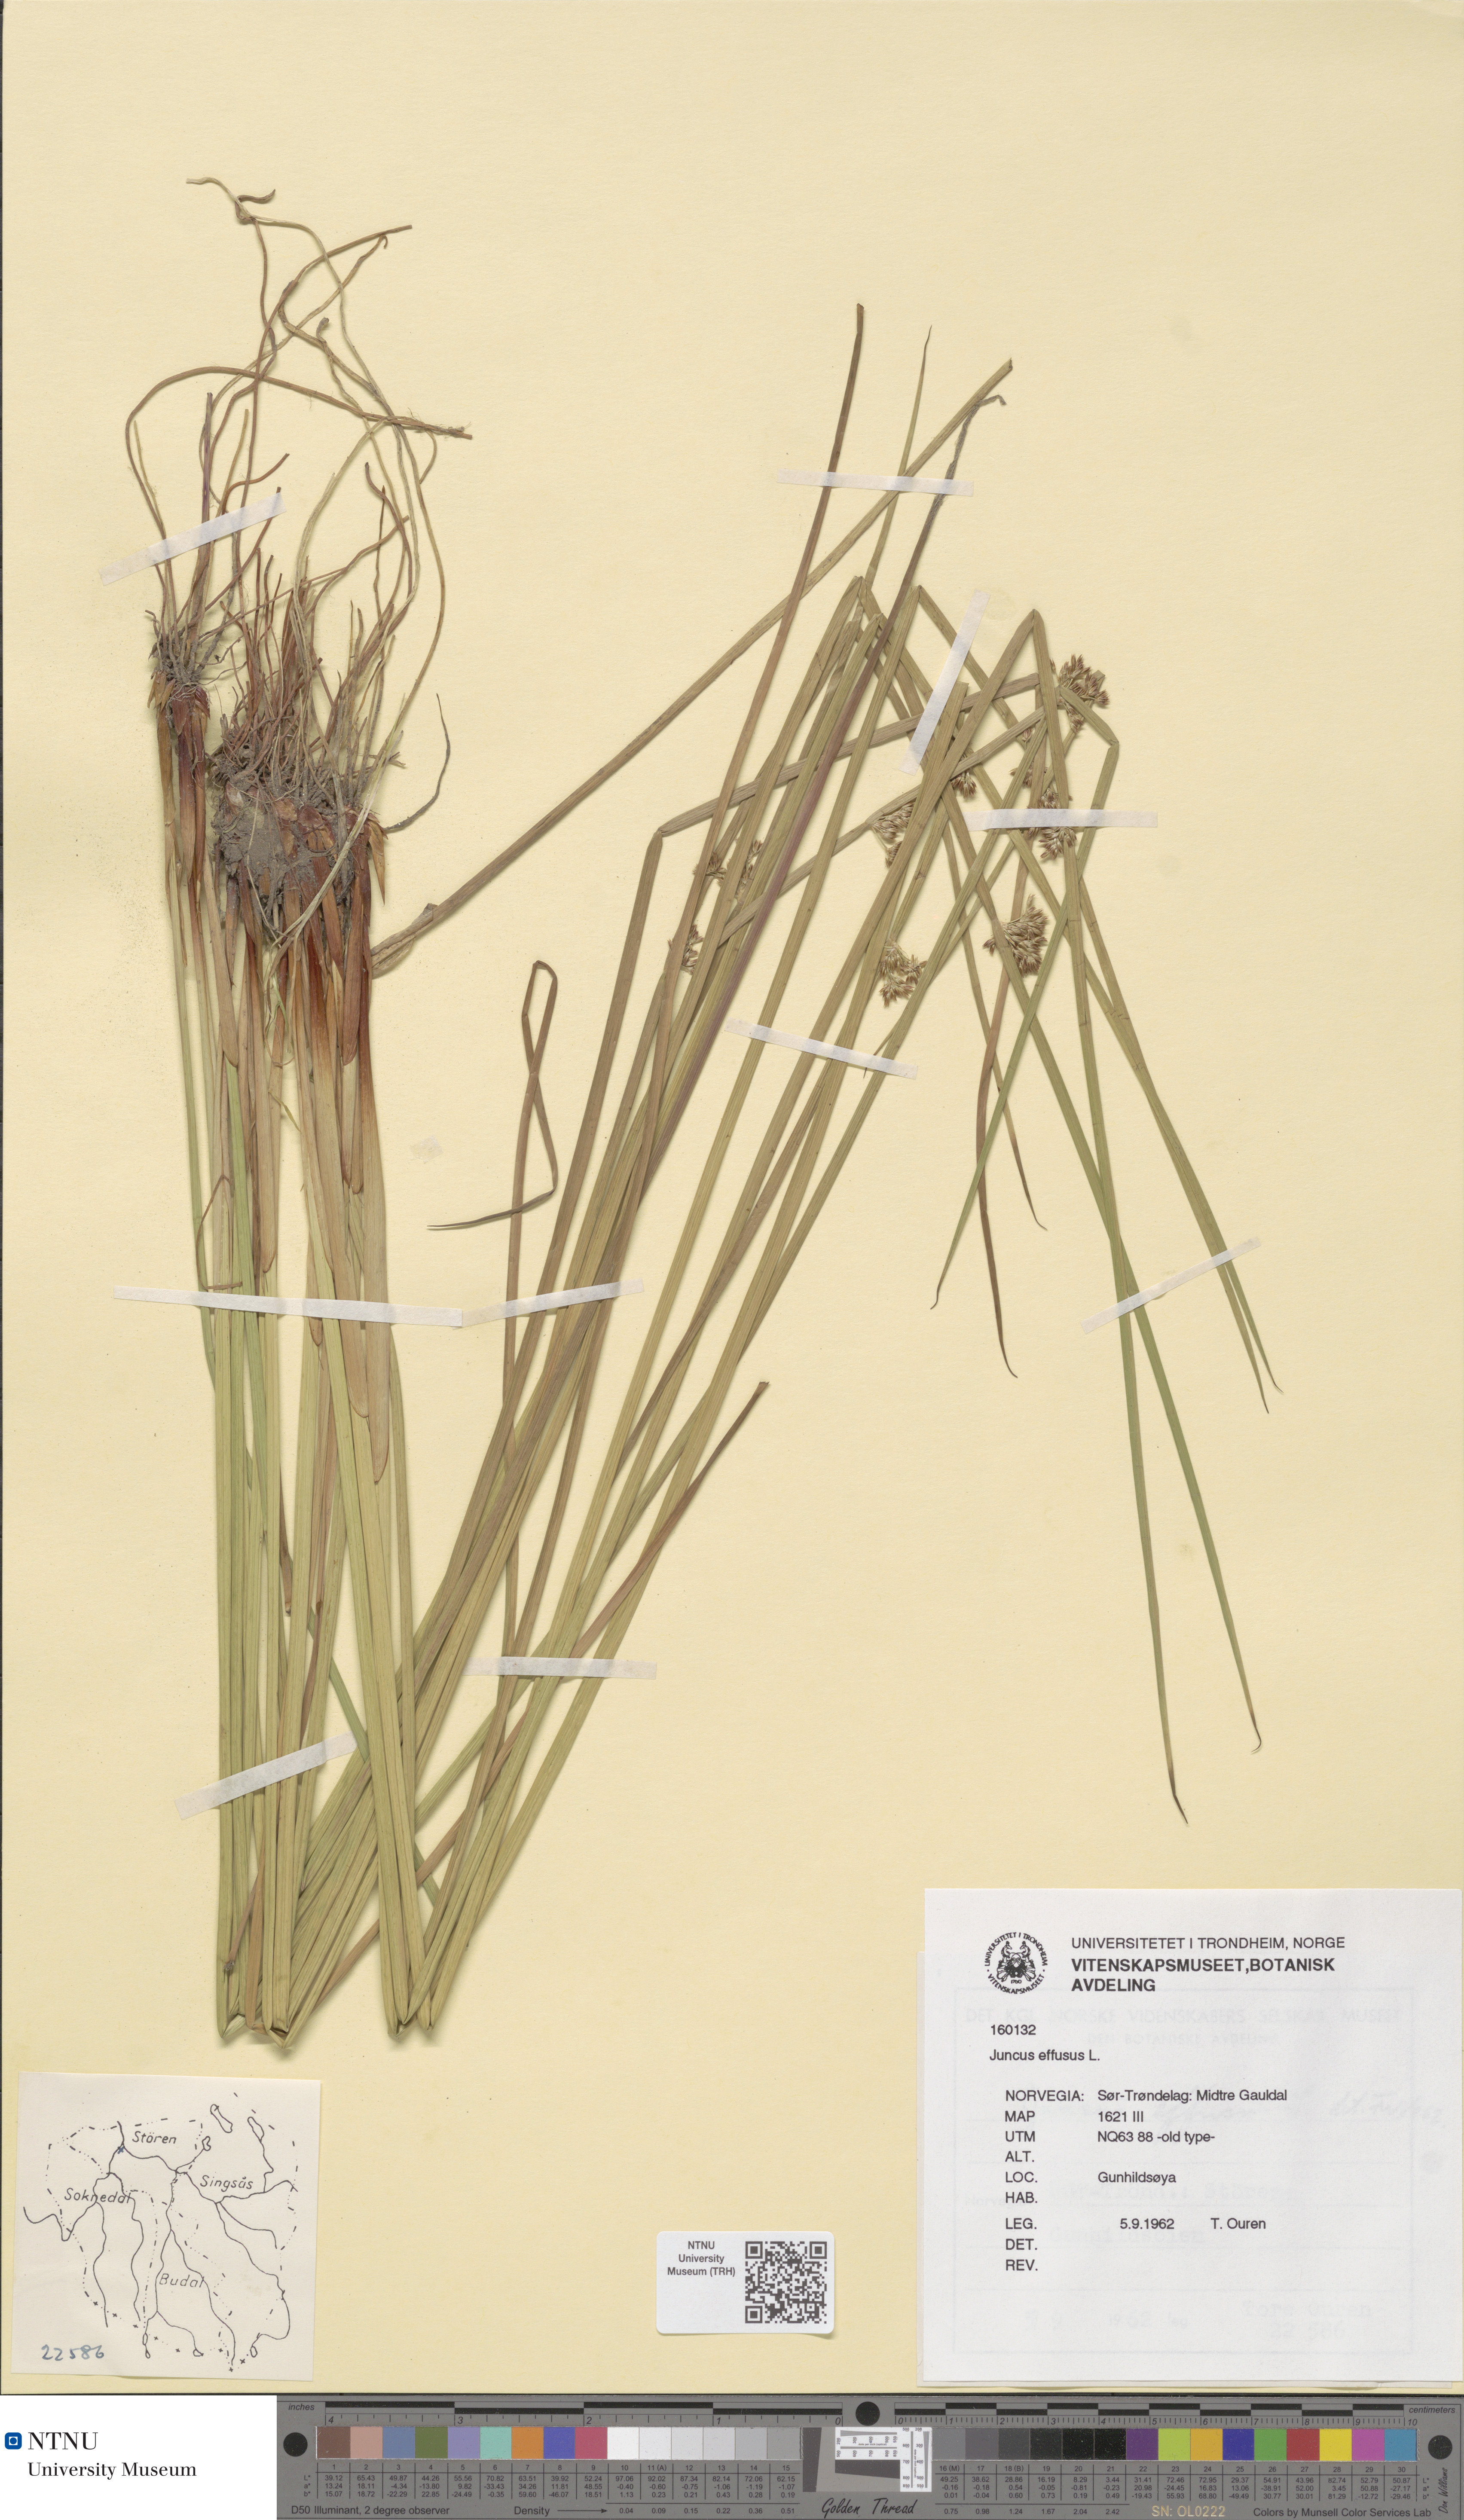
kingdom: Plantae
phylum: Tracheophyta
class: Liliopsida
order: Poales
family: Juncaceae
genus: Juncus
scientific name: Juncus effusus
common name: Soft rush
